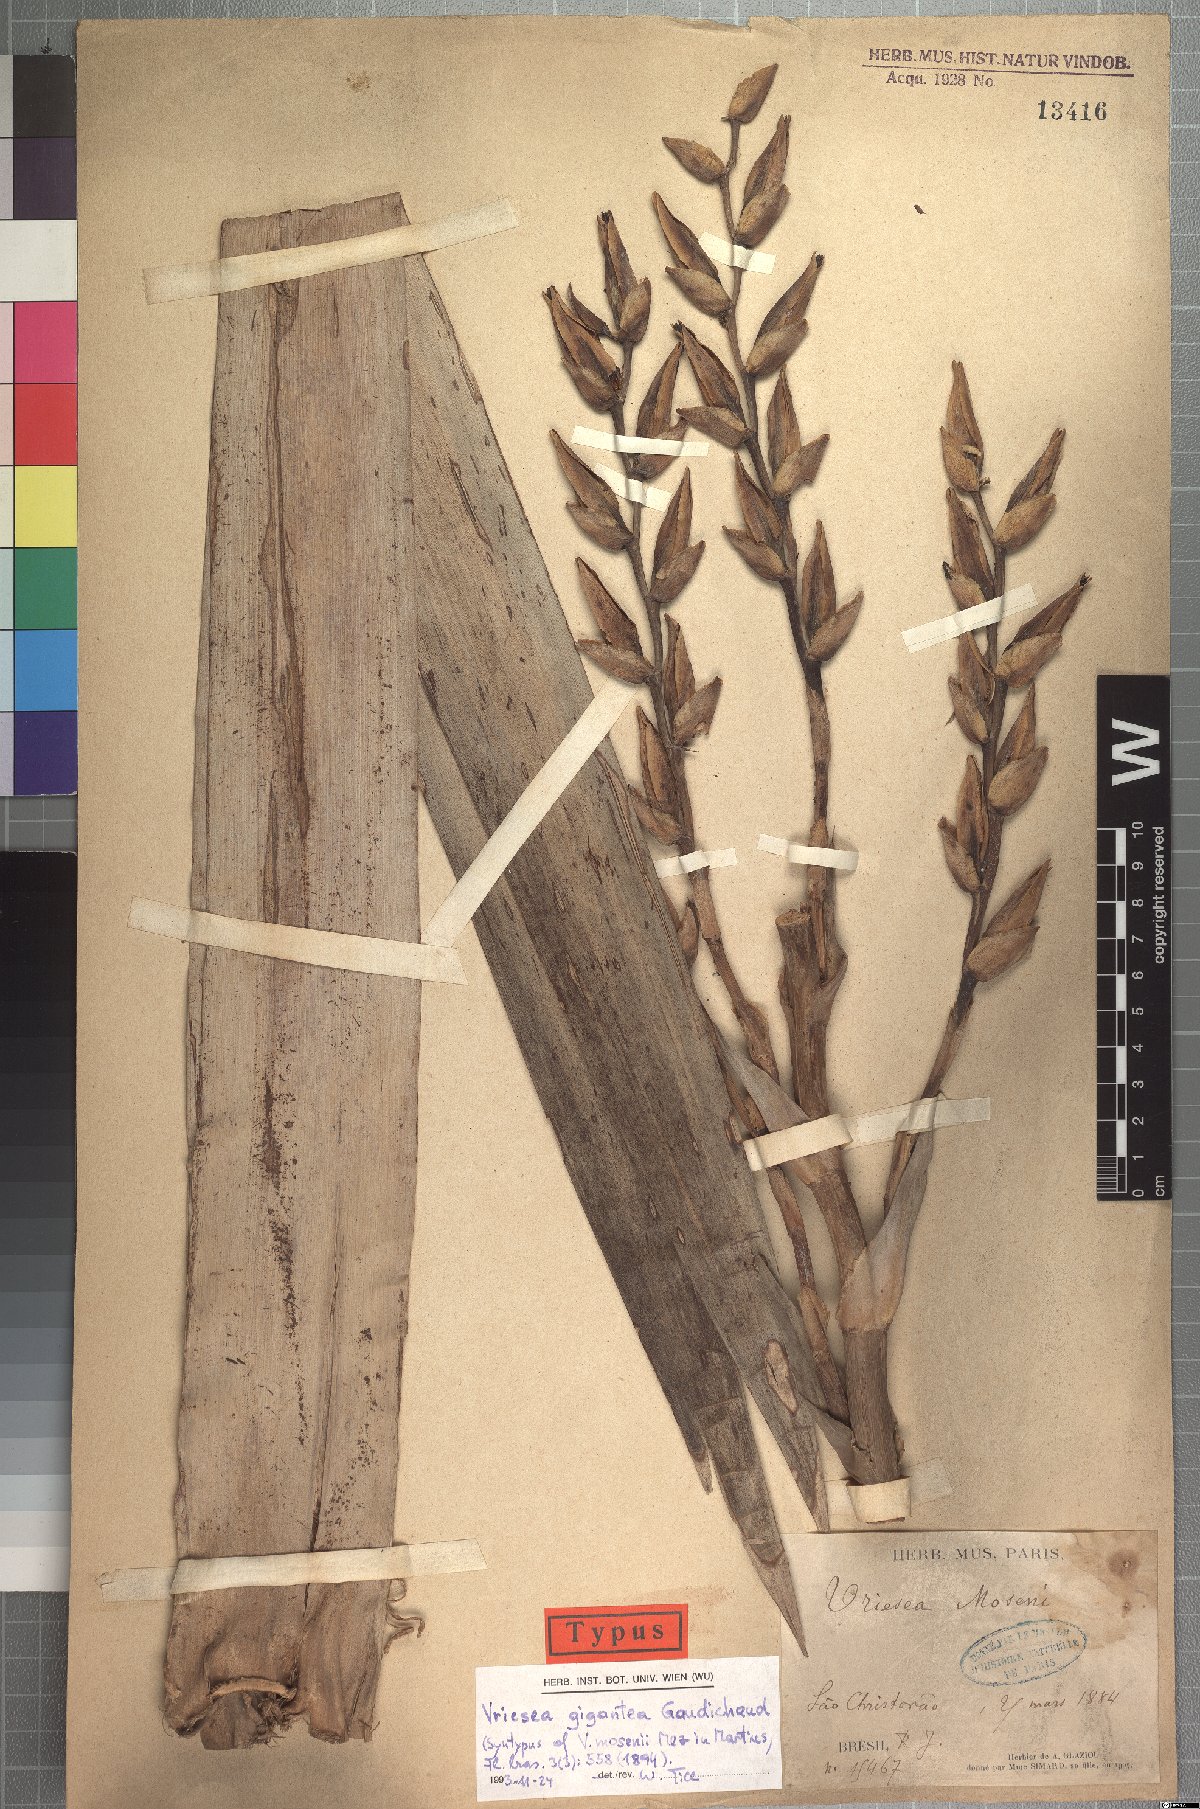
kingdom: Plantae
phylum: Tracheophyta
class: Liliopsida
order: Poales
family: Bromeliaceae
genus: Vriesea
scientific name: Vriesea gigantea
